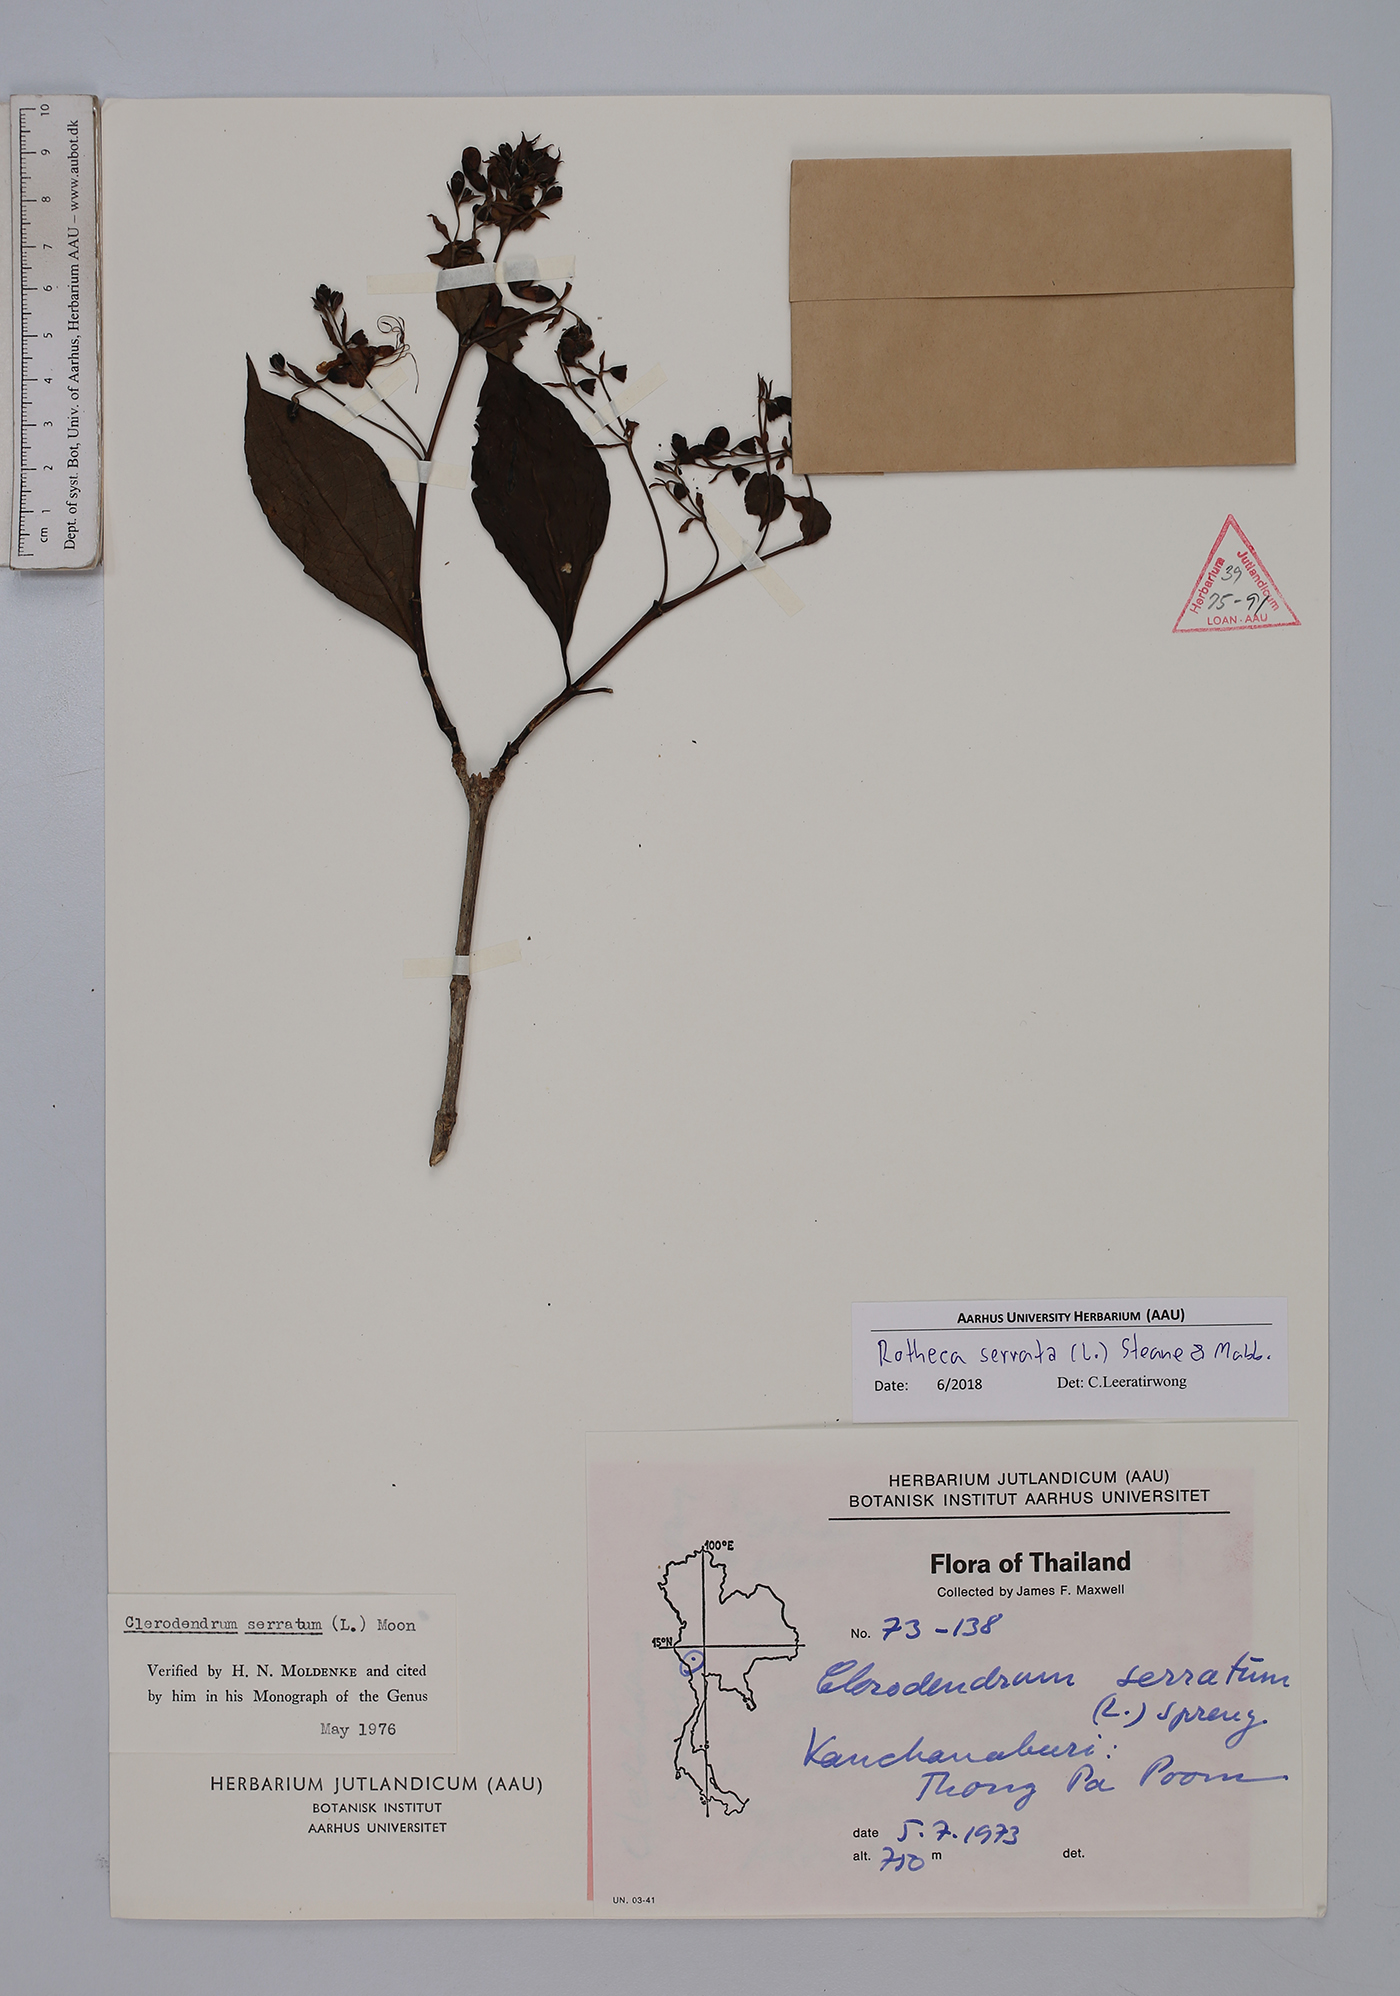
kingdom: Plantae
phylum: Tracheophyta
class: Magnoliopsida
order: Lamiales
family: Lamiaceae
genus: Rotheca
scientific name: Rotheca serrata
